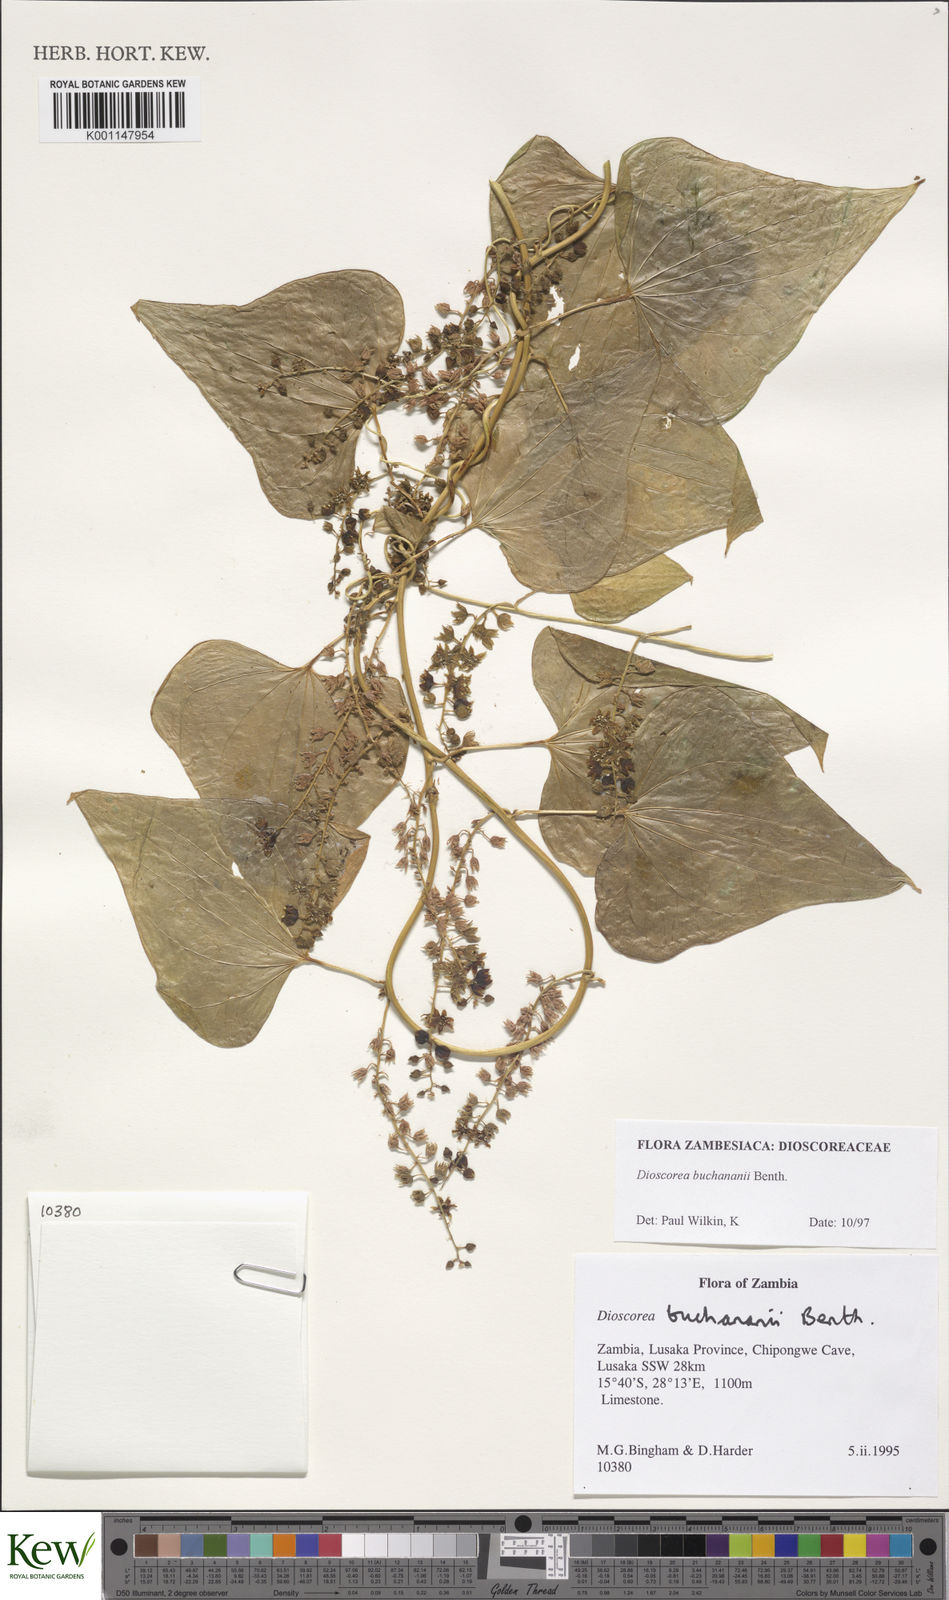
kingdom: Plantae
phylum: Tracheophyta
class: Liliopsida
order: Dioscoreales
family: Dioscoreaceae
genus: Dioscorea
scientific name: Dioscorea buchananii
